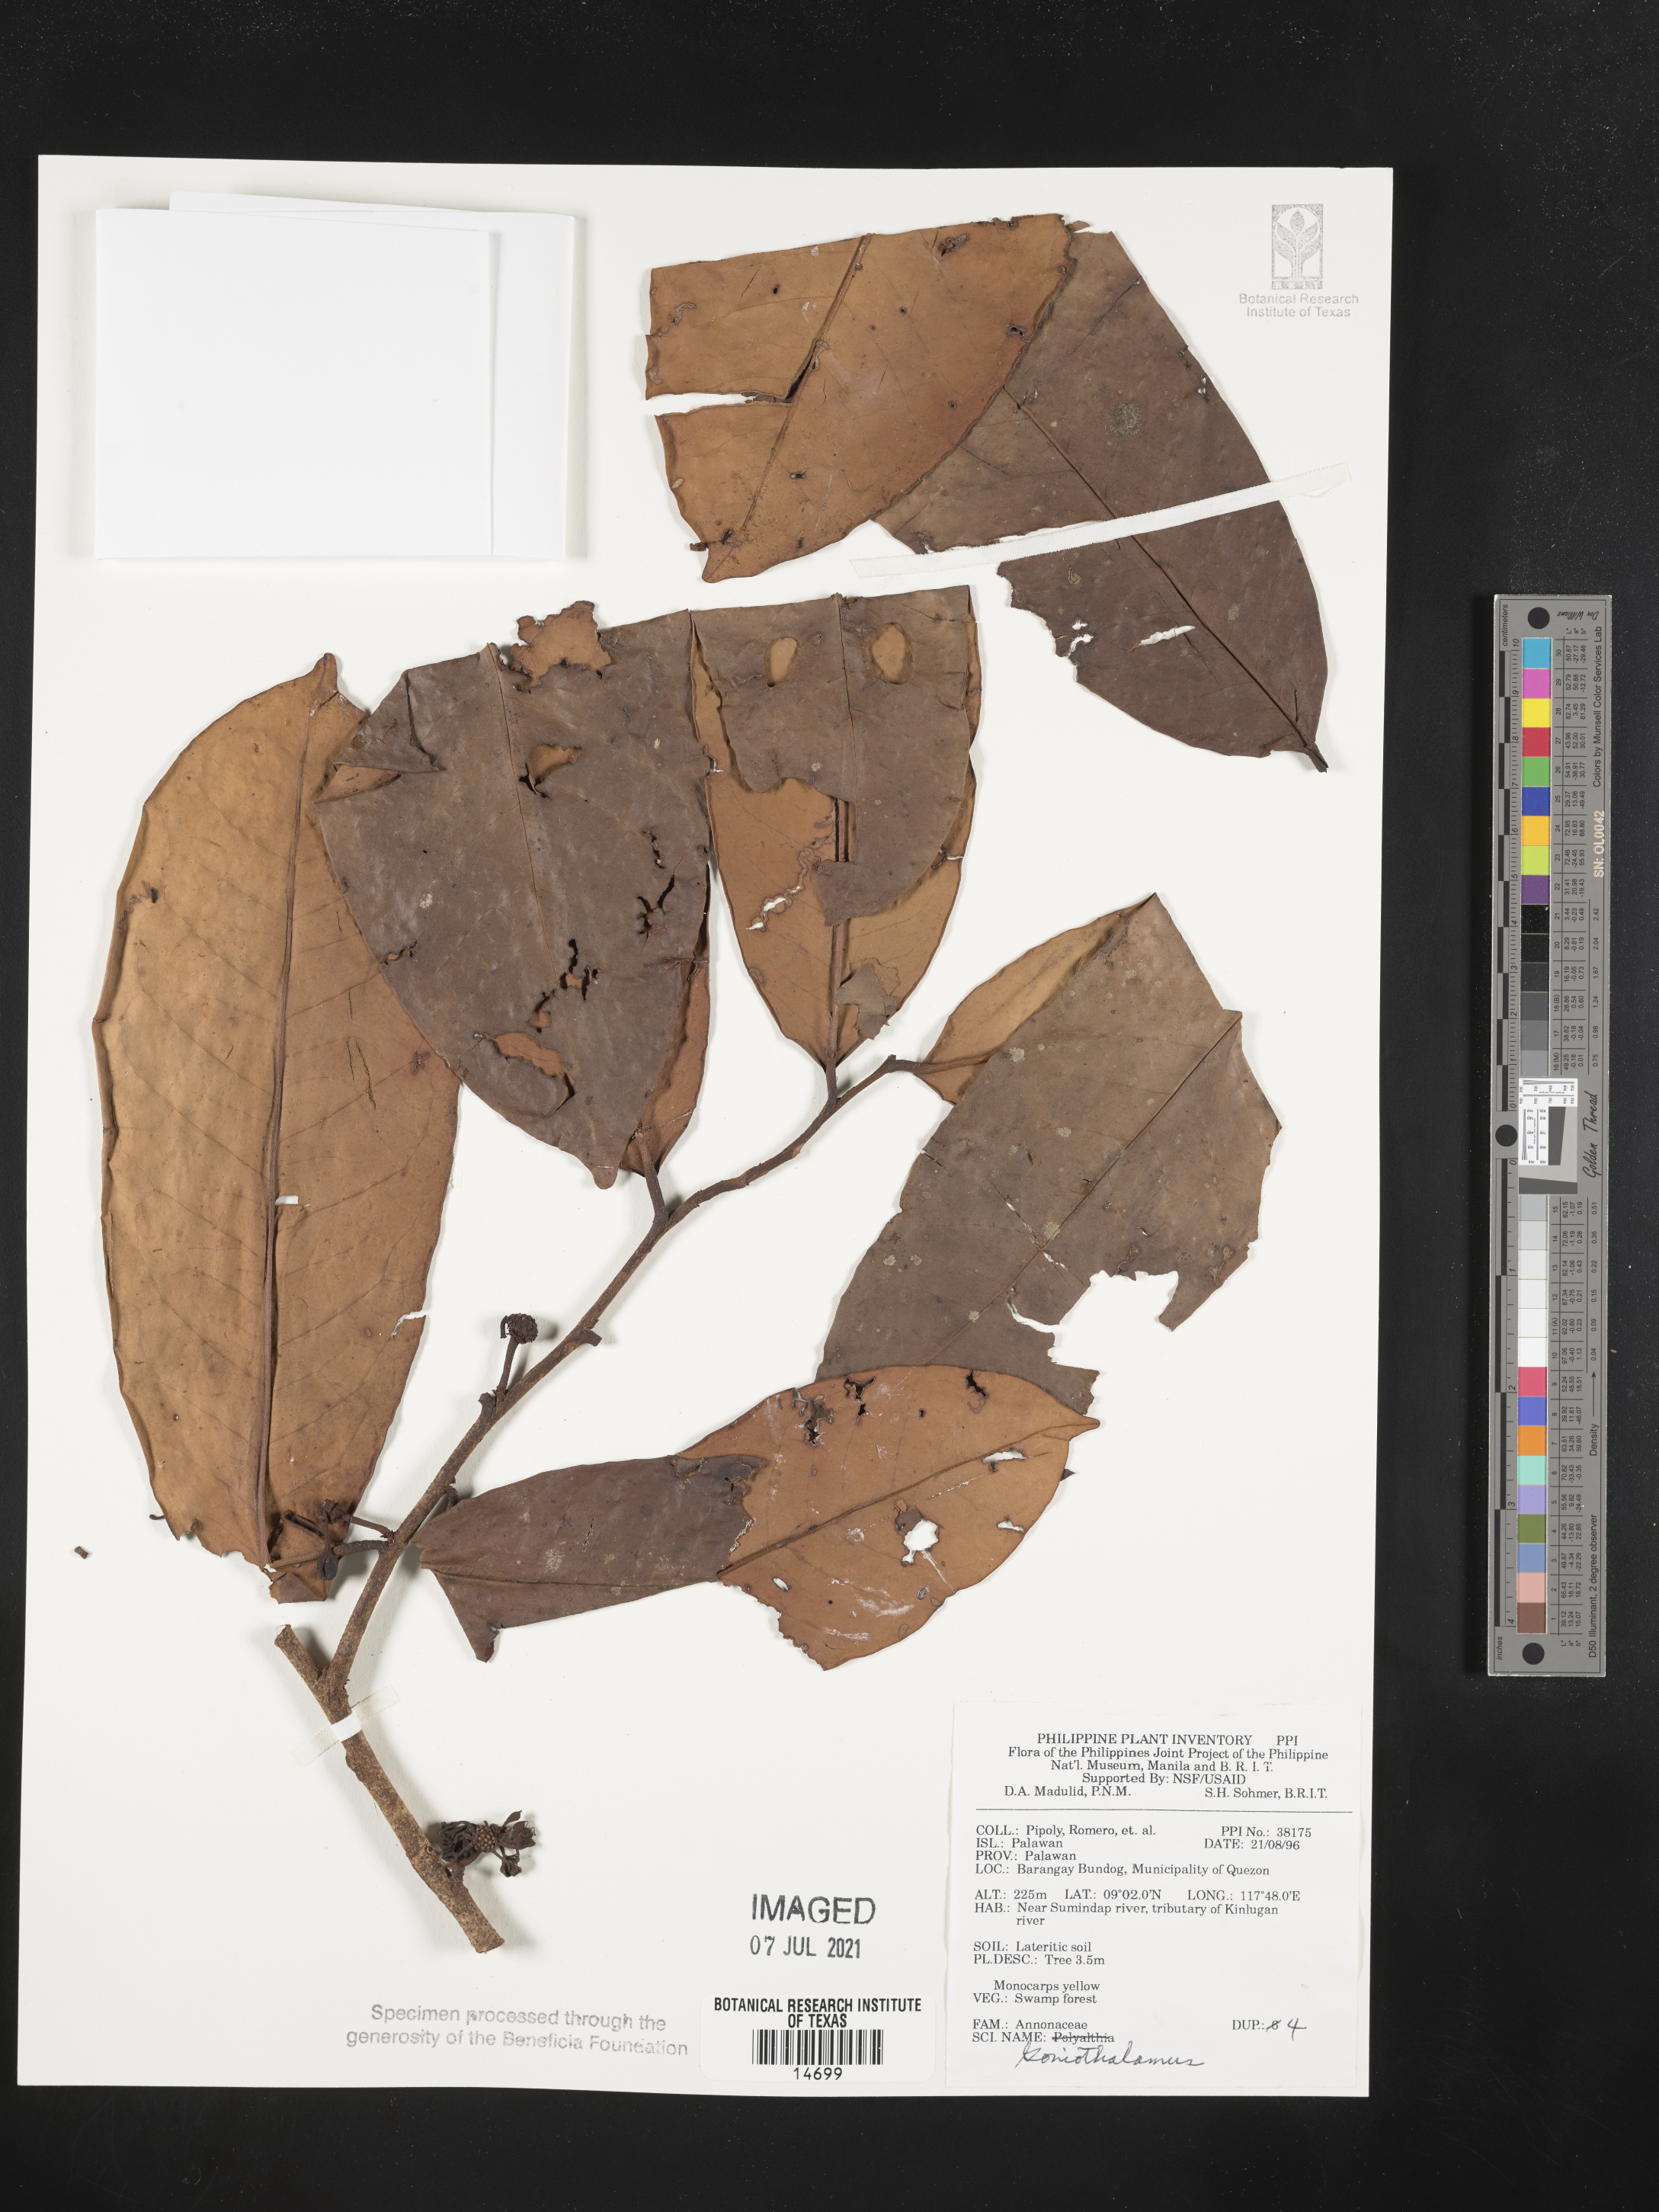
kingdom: Plantae
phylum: Tracheophyta
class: Magnoliopsida
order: Magnoliales
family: Annonaceae
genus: Goniothalamus
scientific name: Goniothalamus
